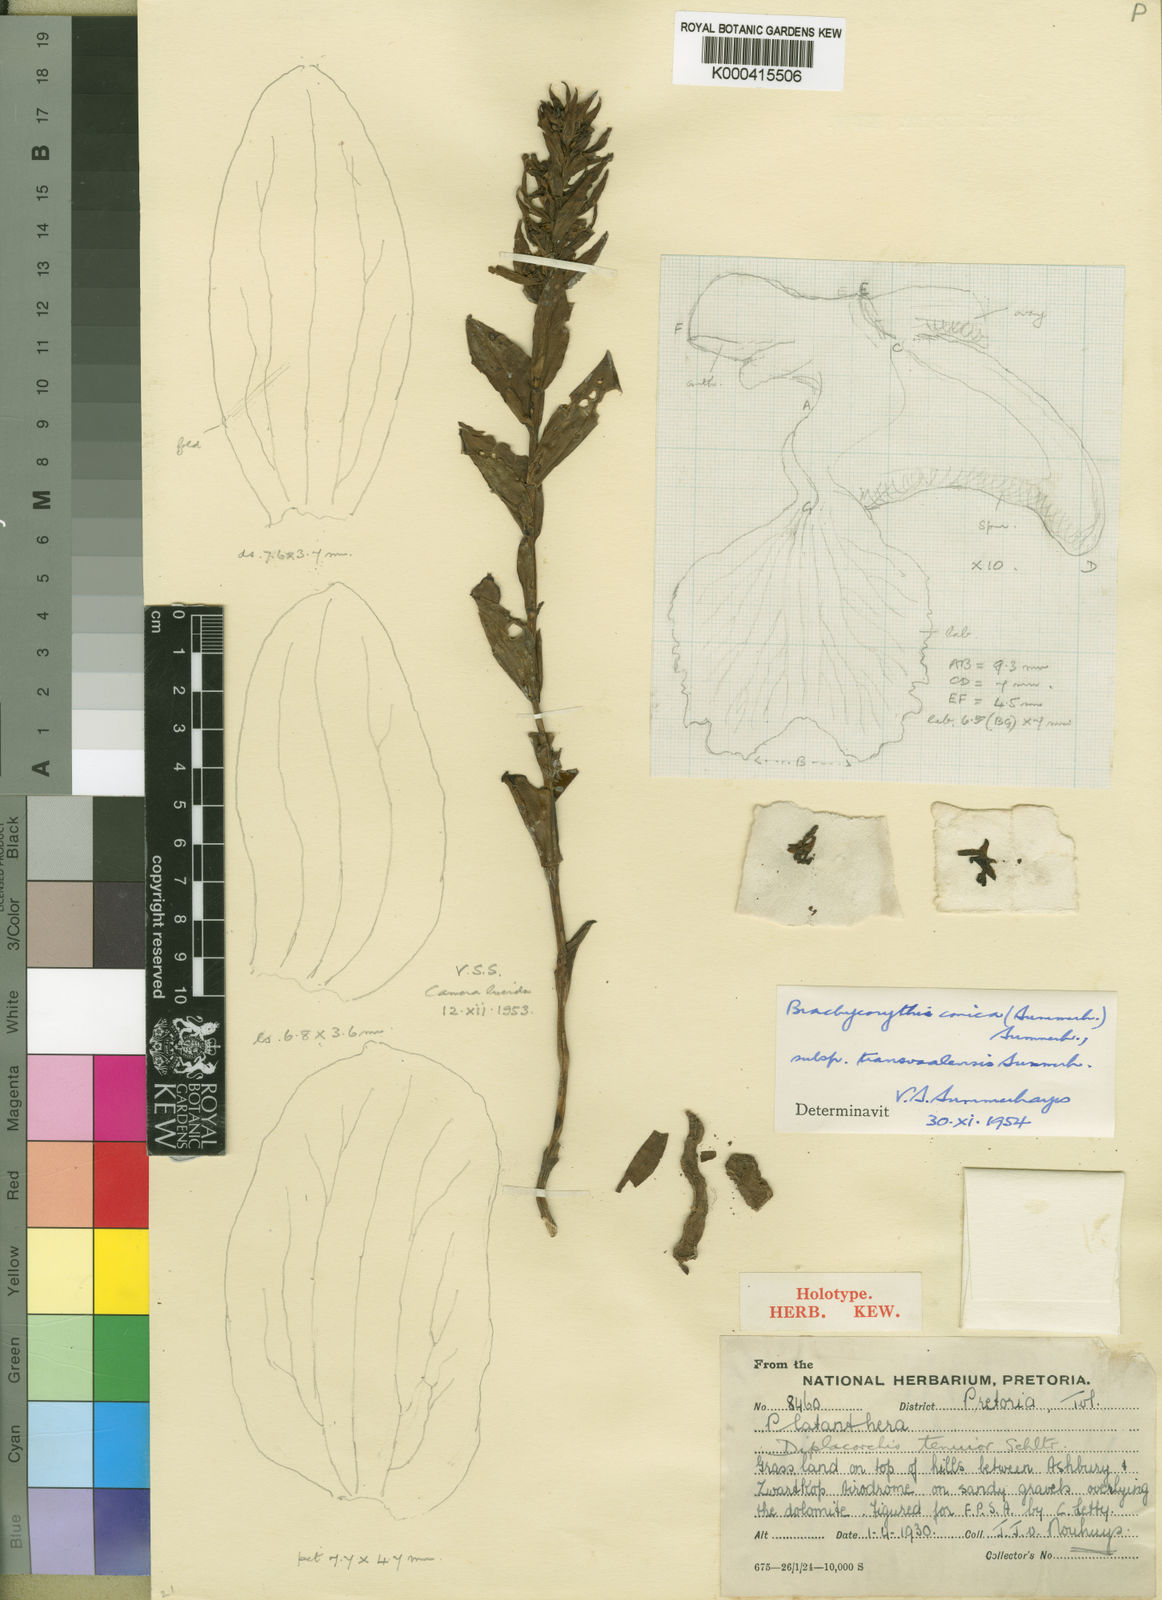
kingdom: Plantae
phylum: Tracheophyta
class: Liliopsida
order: Asparagales
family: Orchidaceae
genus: Brachycorythis
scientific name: Brachycorythis conica
